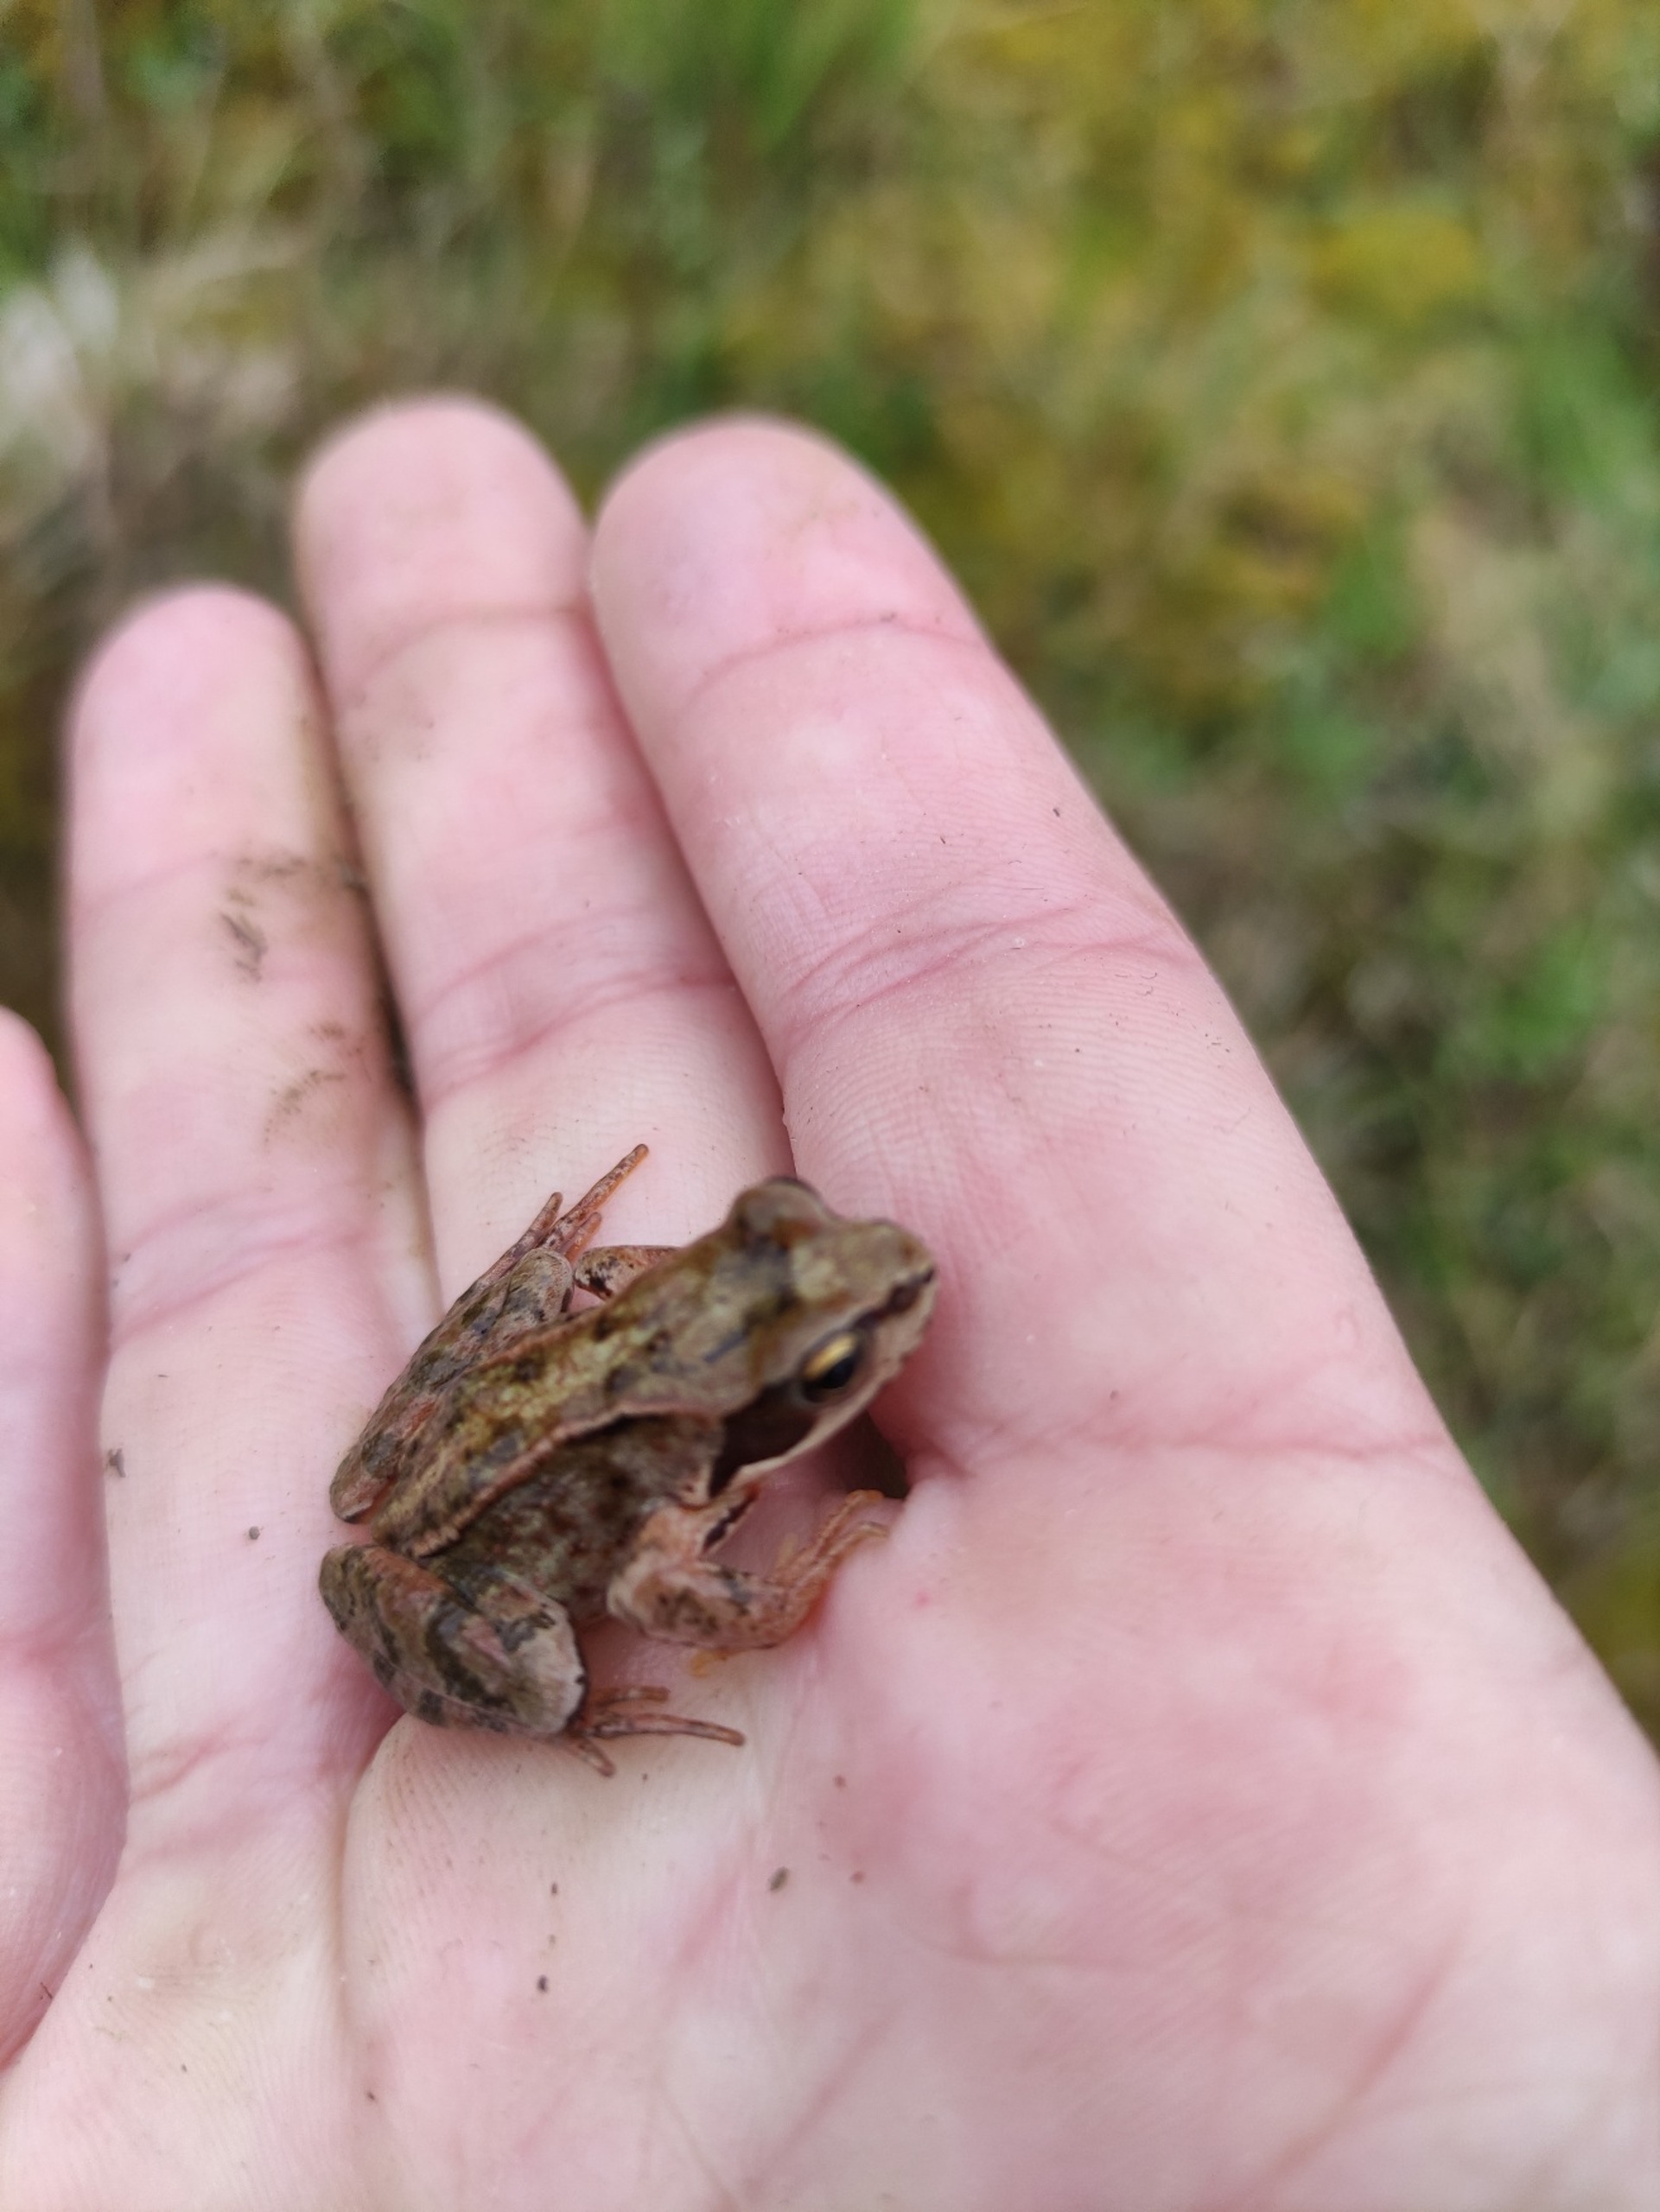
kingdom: Animalia
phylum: Chordata
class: Amphibia
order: Anura
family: Ranidae
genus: Rana
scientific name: Rana temporaria
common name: Butsnudet frø
